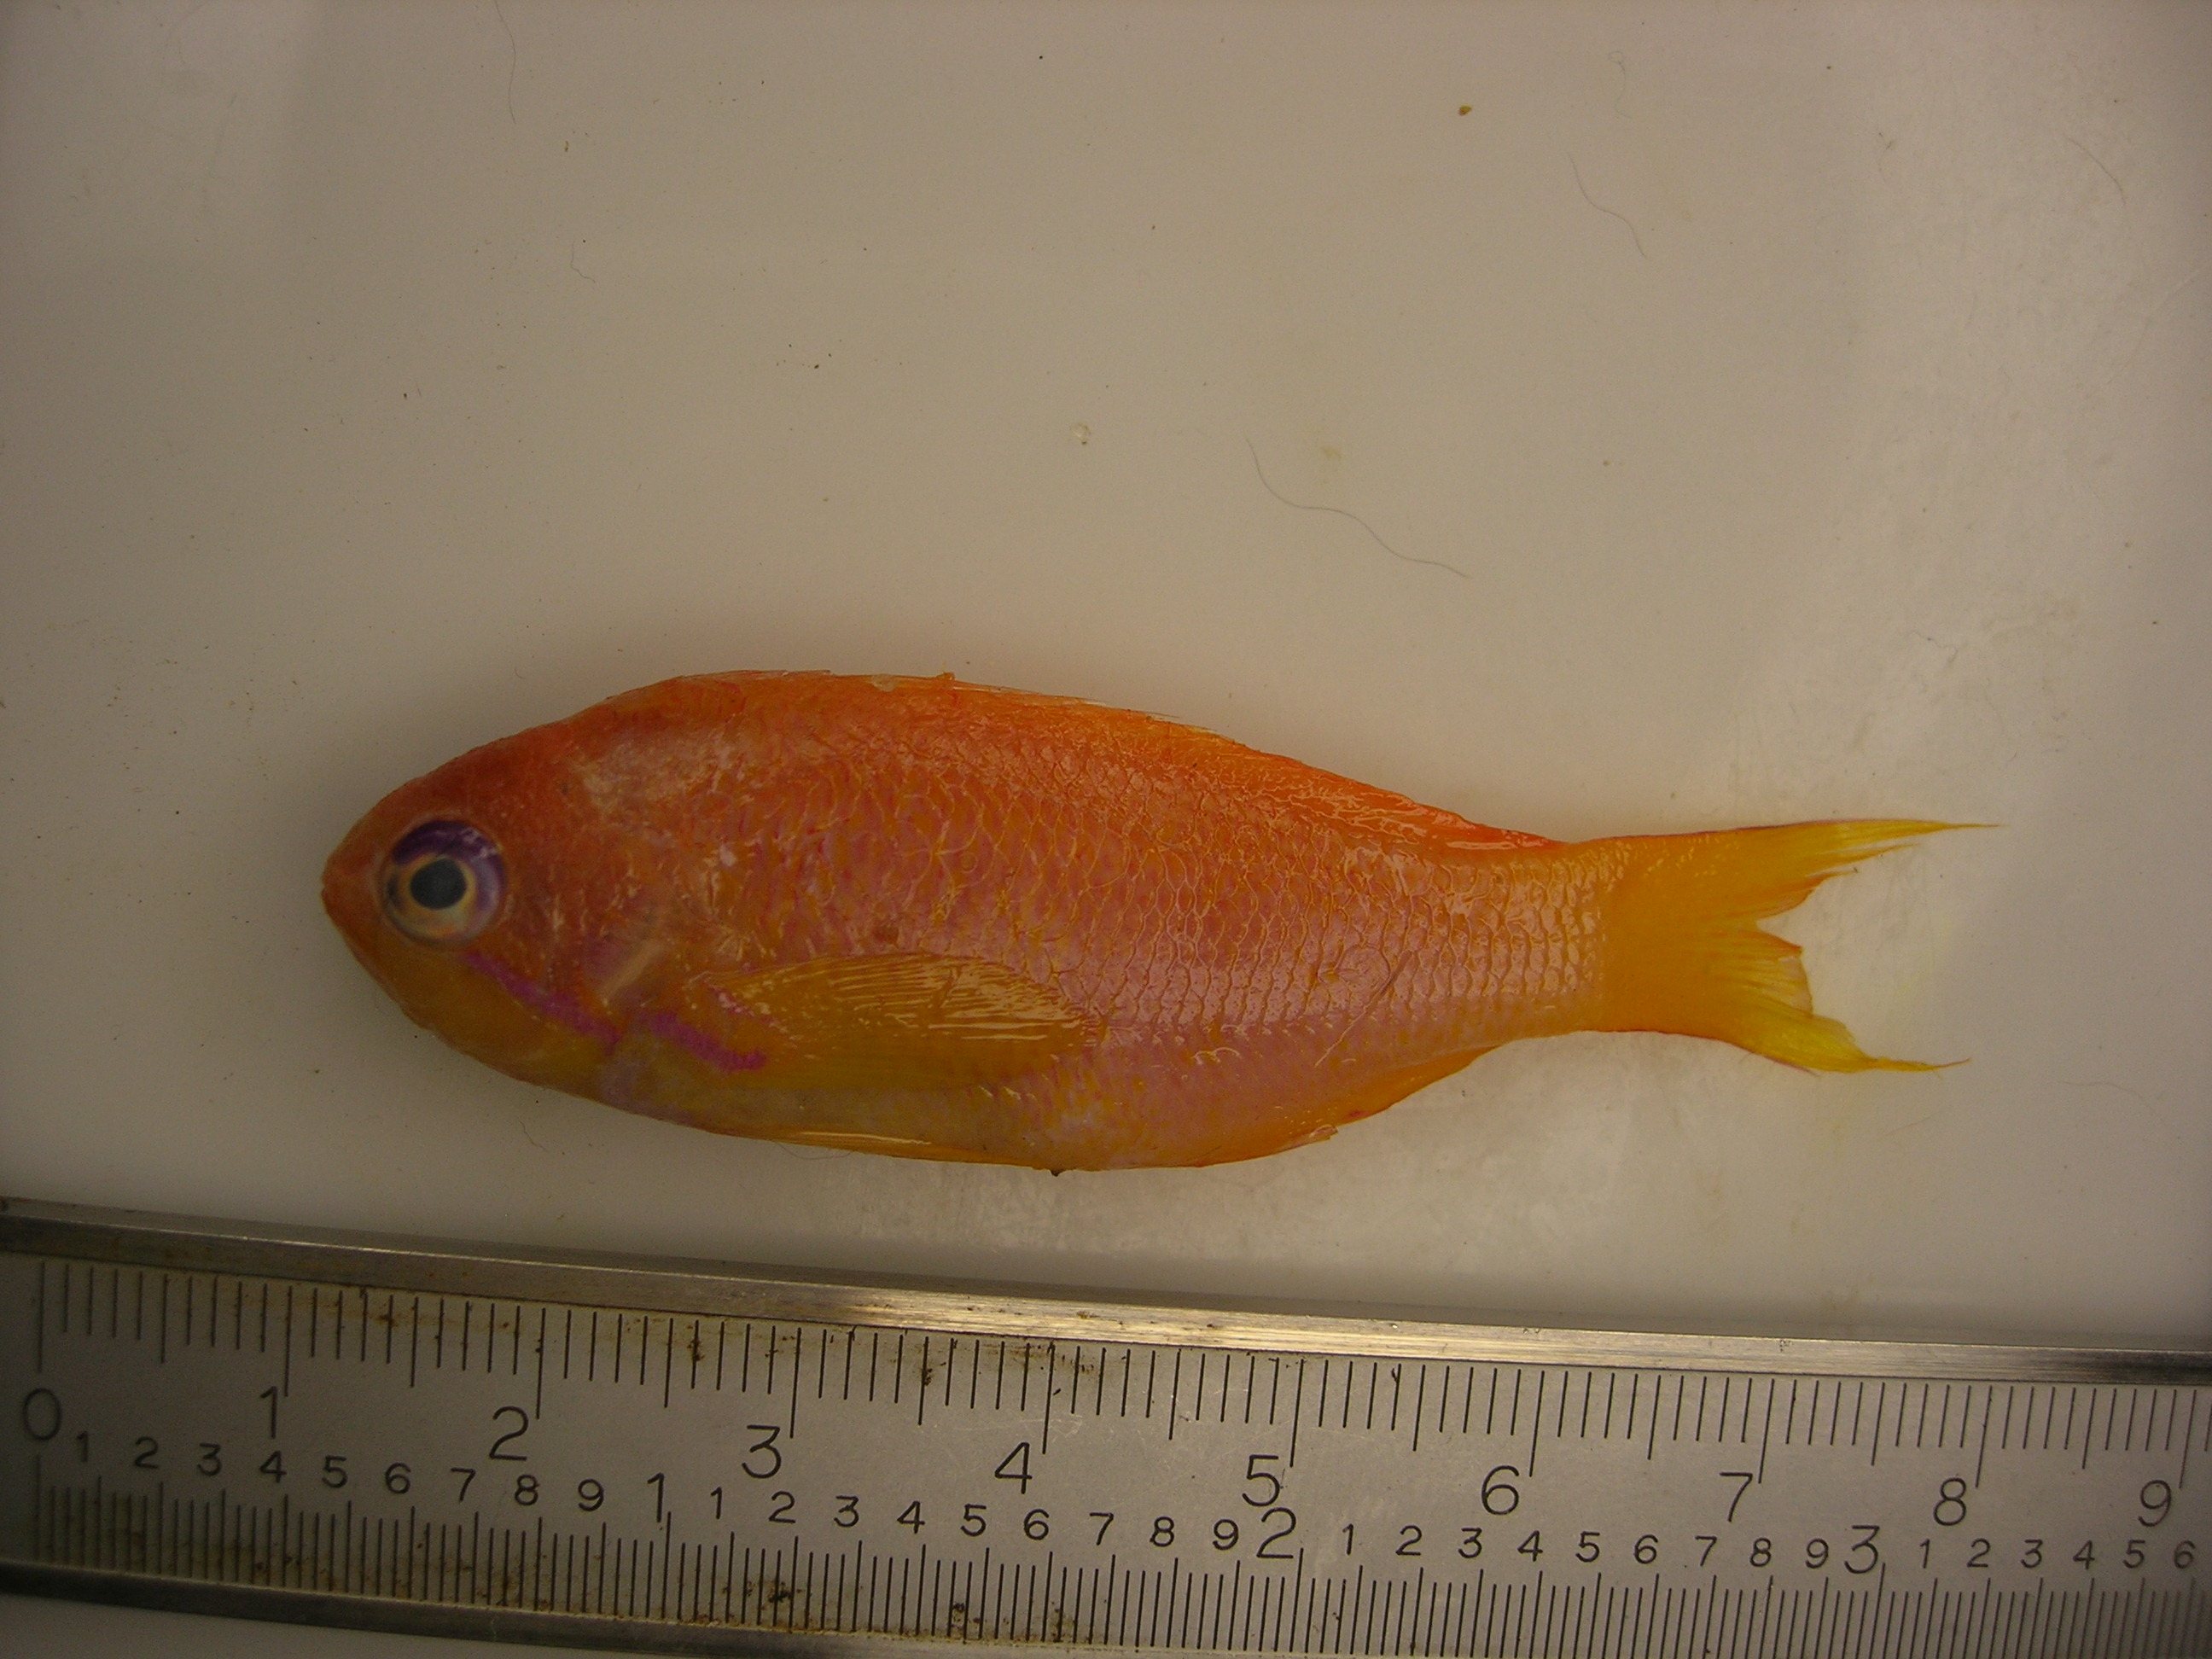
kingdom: Animalia
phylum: Chordata
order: Perciformes
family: Serranidae
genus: Pseudanthias
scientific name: Pseudanthias squamipinnis
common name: Scalefin anthias
